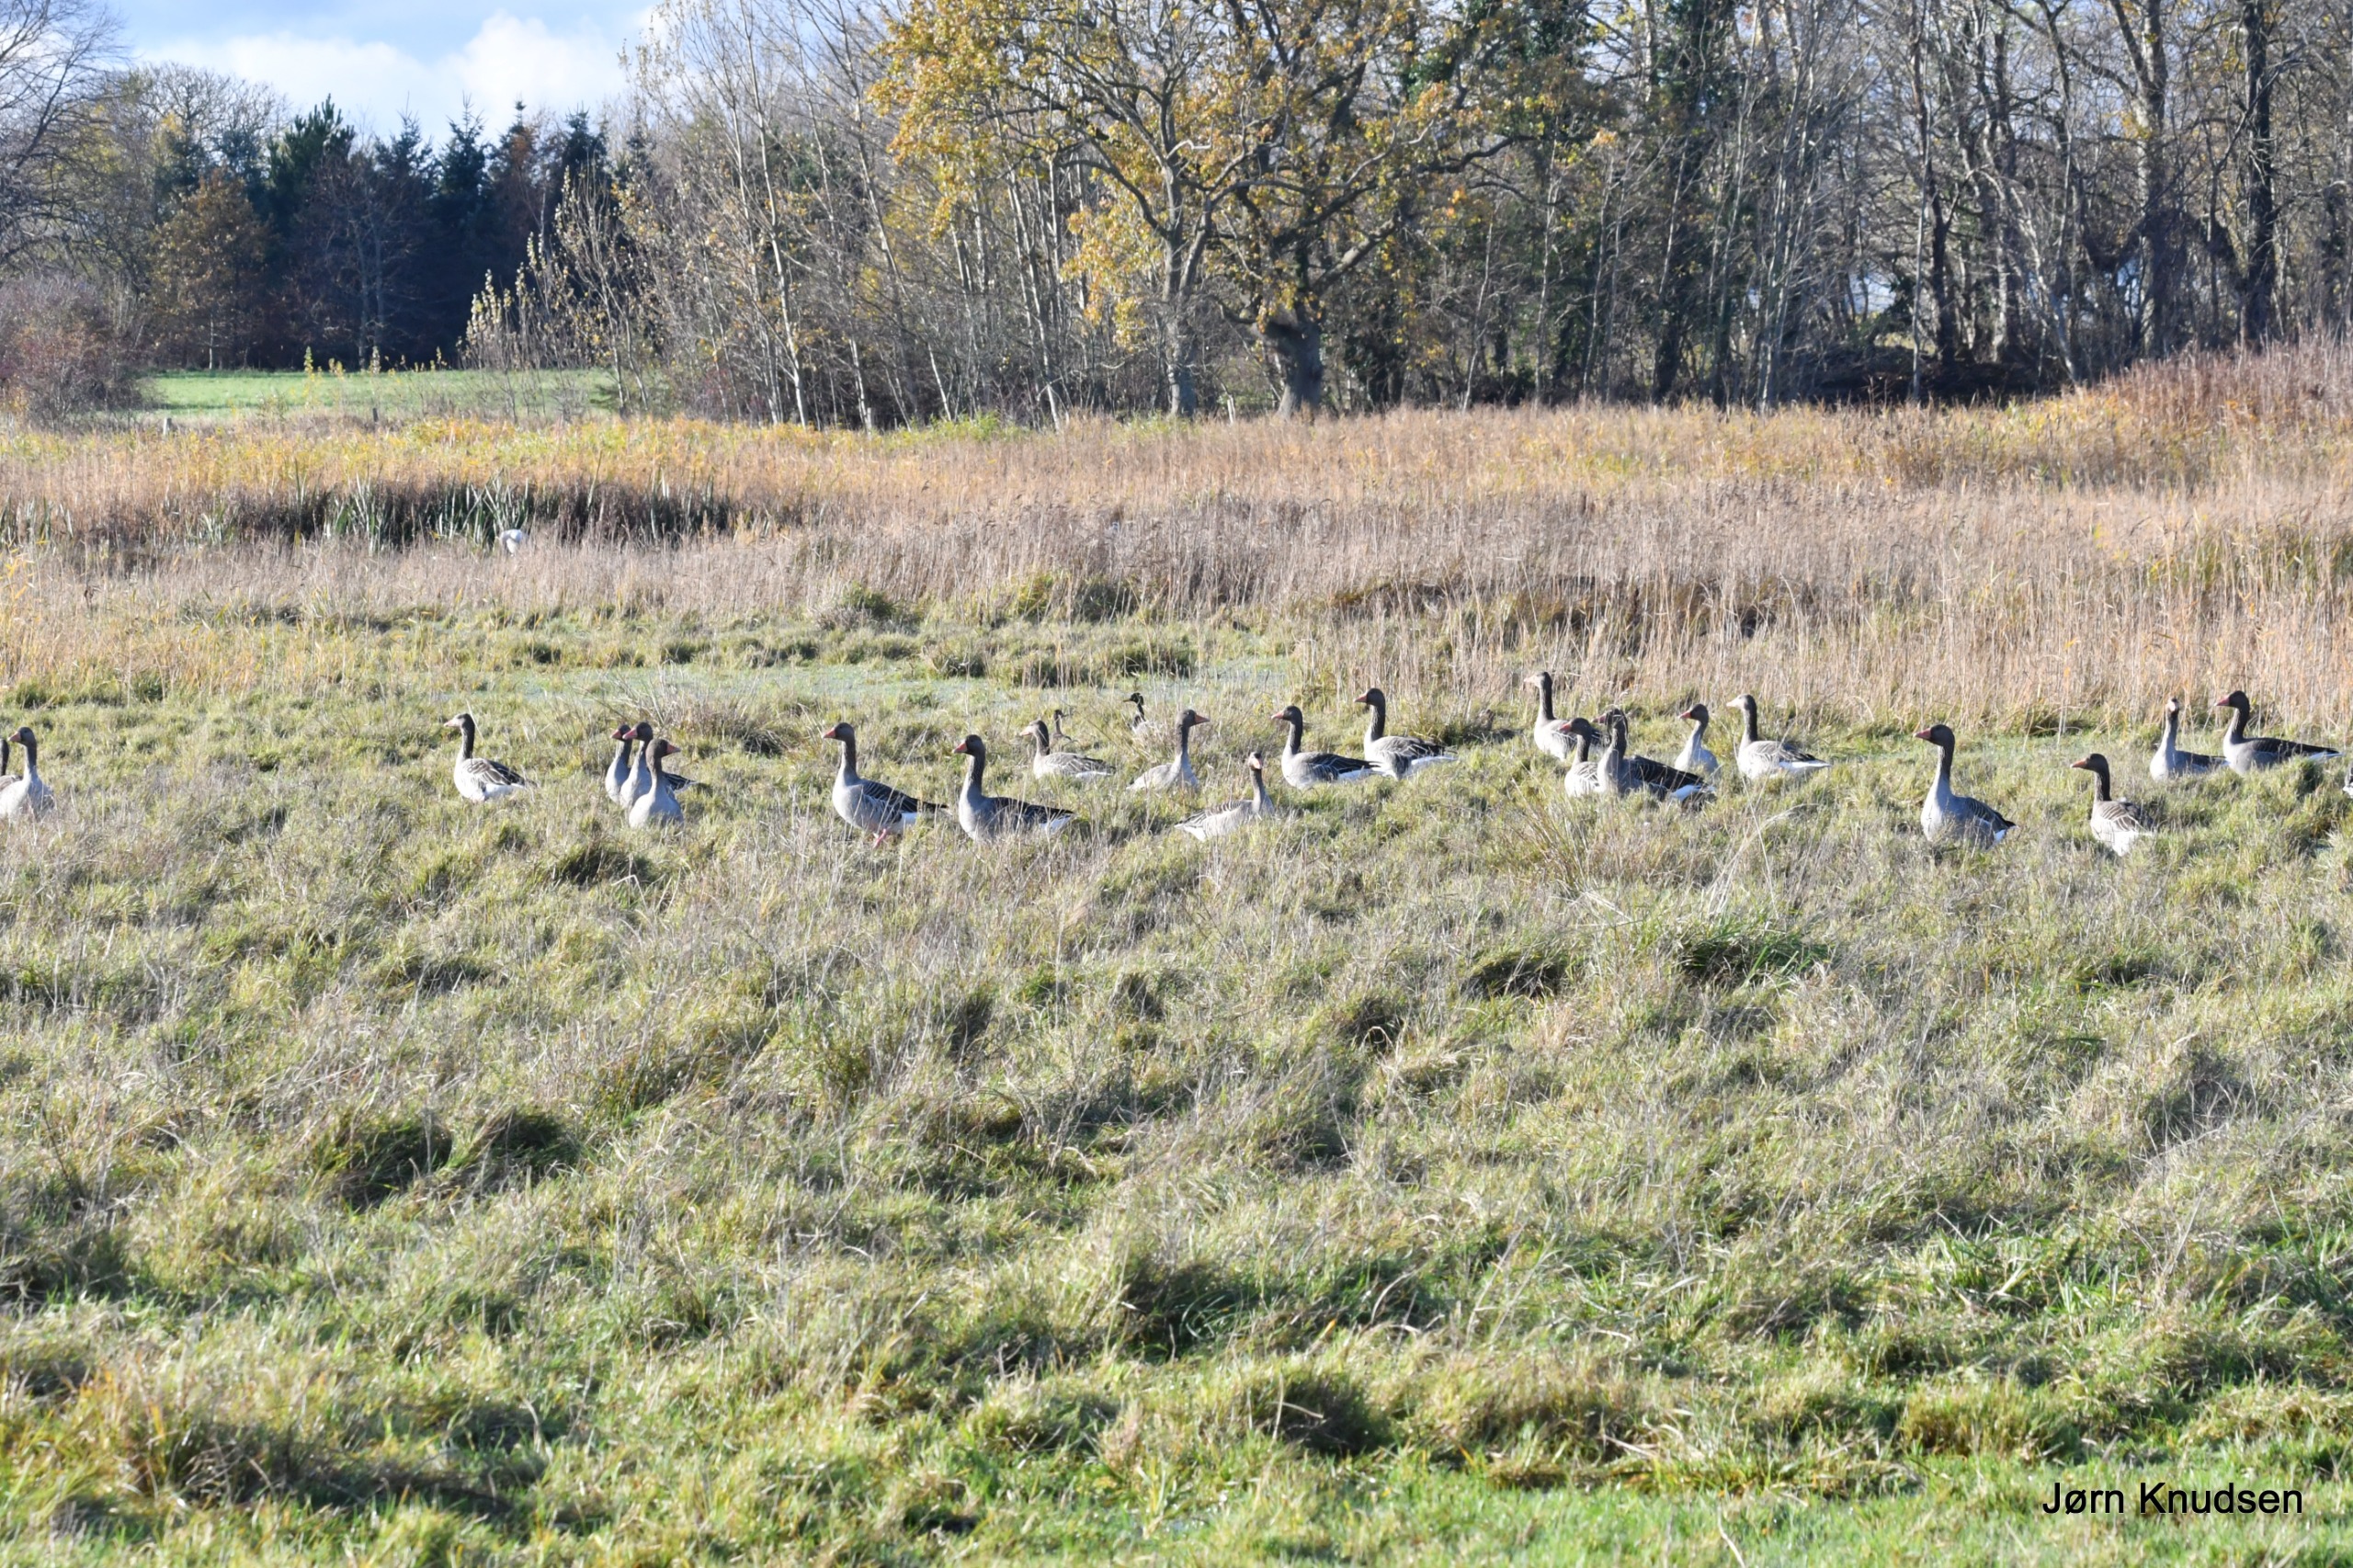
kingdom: Animalia
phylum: Chordata
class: Aves
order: Anseriformes
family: Anatidae
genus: Anser
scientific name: Anser anser
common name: Grågås
